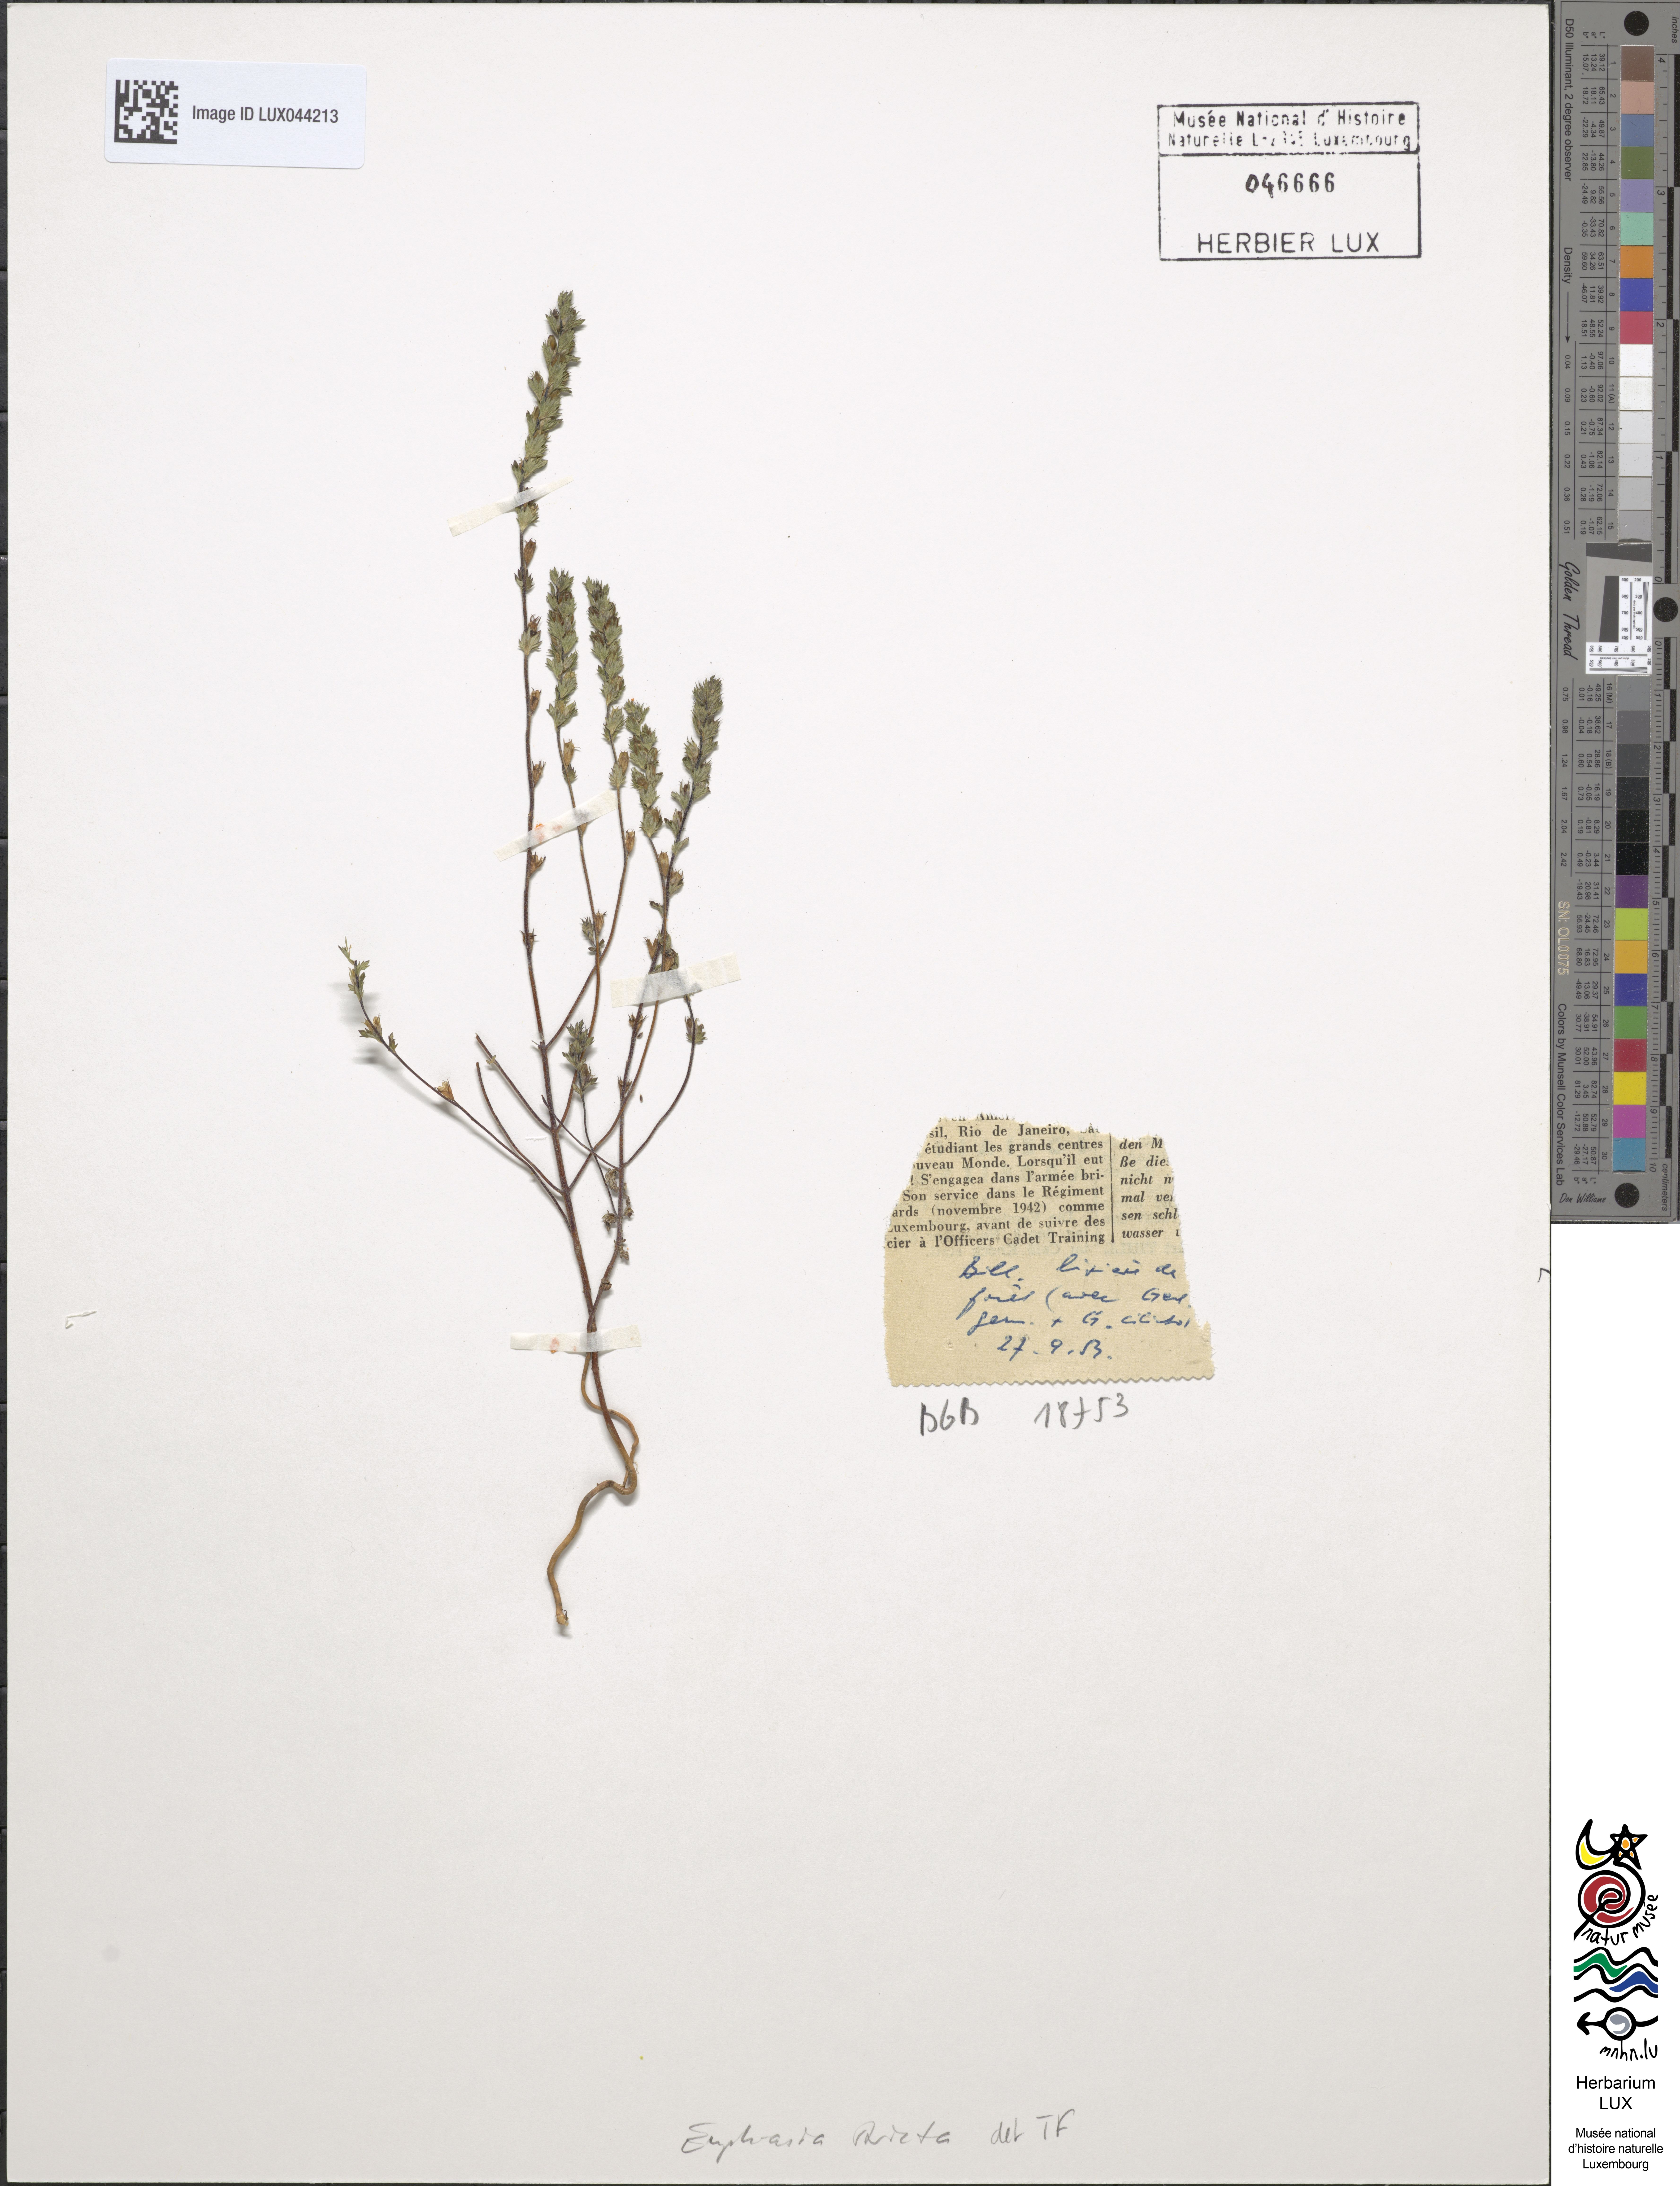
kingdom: Plantae
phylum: Tracheophyta
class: Magnoliopsida
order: Lamiales
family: Orobanchaceae
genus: Euphrasia
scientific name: Euphrasia stricta
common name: Drug eyebright
